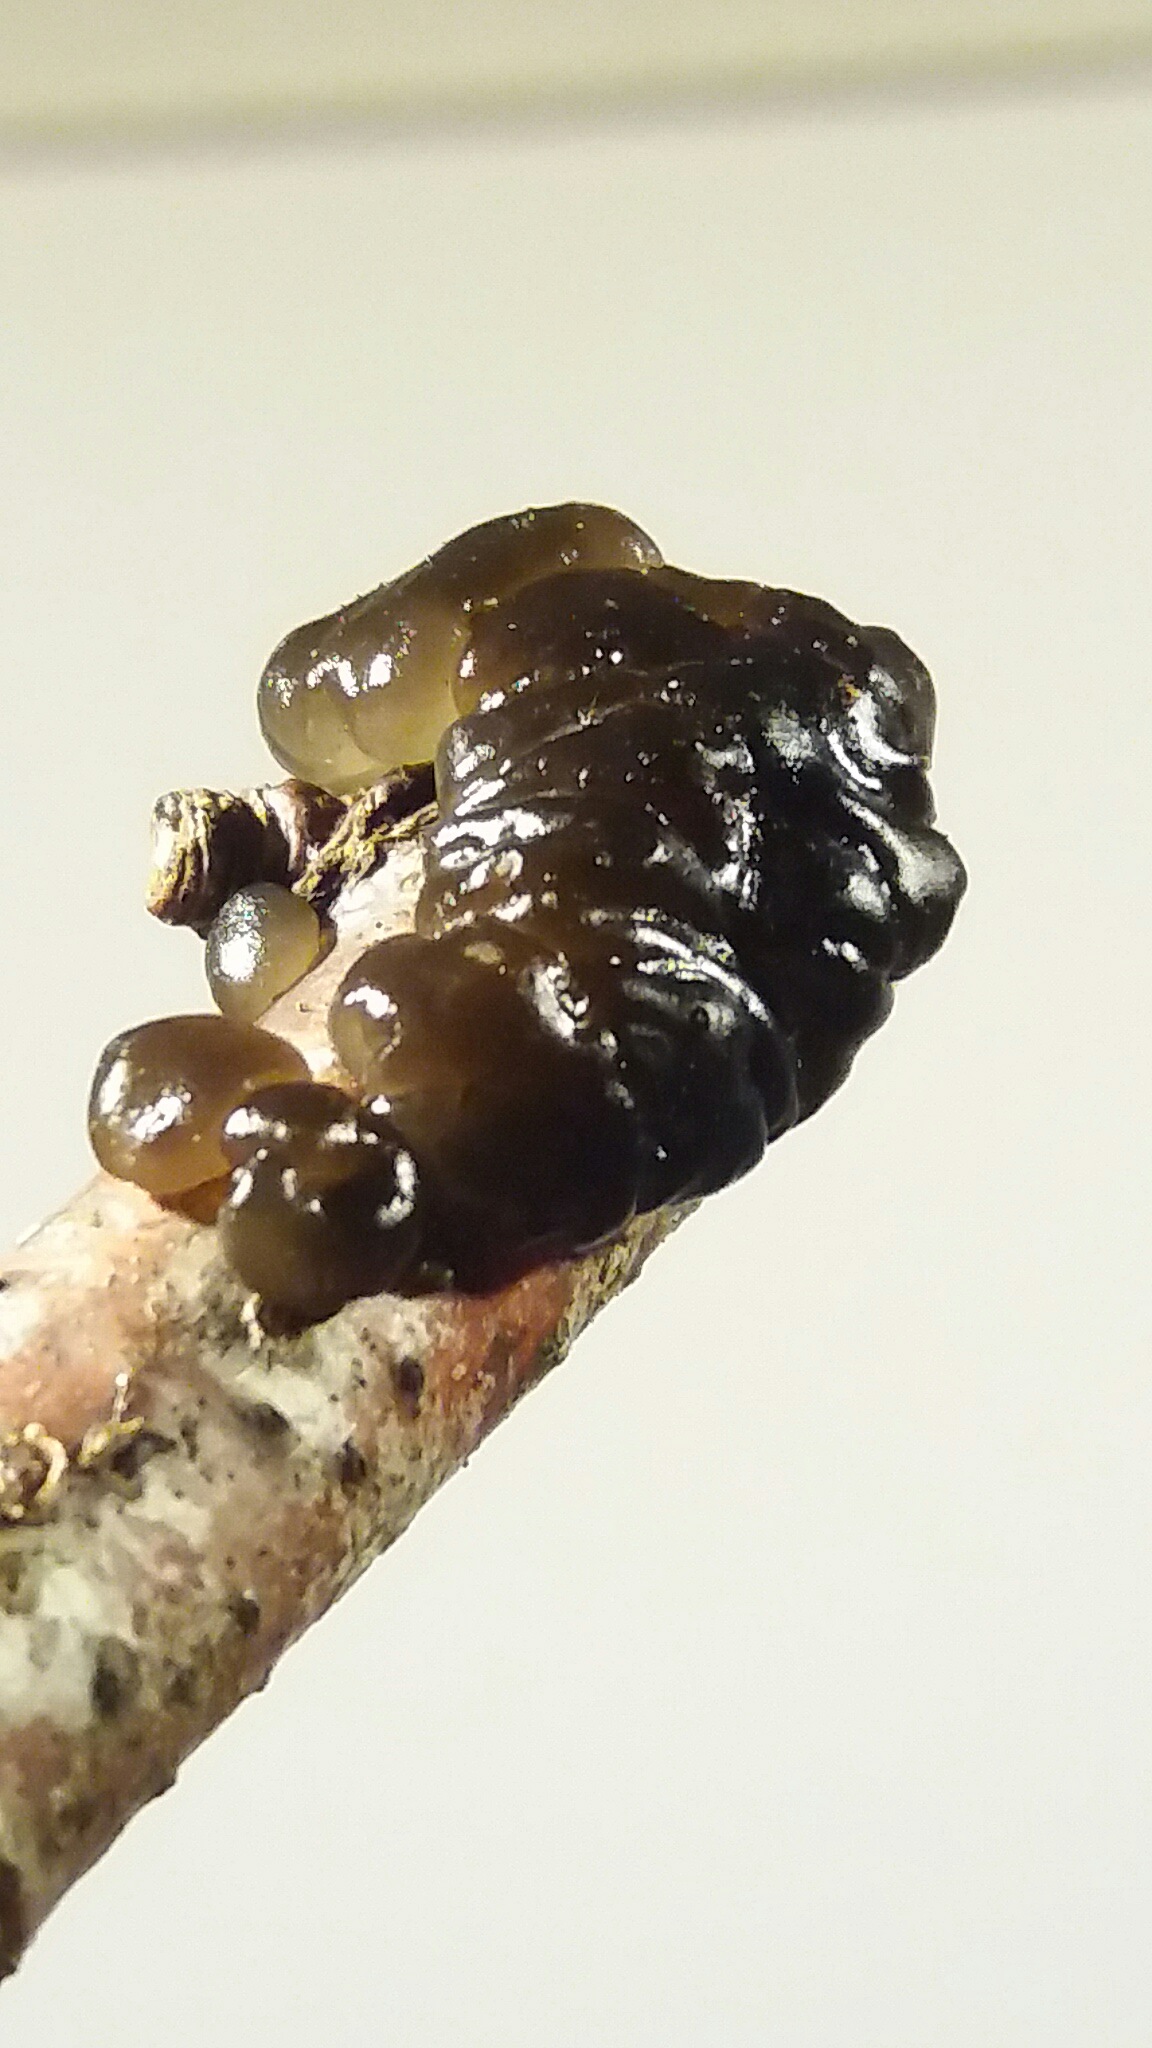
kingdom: Fungi
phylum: Basidiomycota
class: Agaricomycetes
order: Auriculariales
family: Auriculariaceae
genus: Exidia
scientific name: Exidia nigricans
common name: almindelig bævretop
